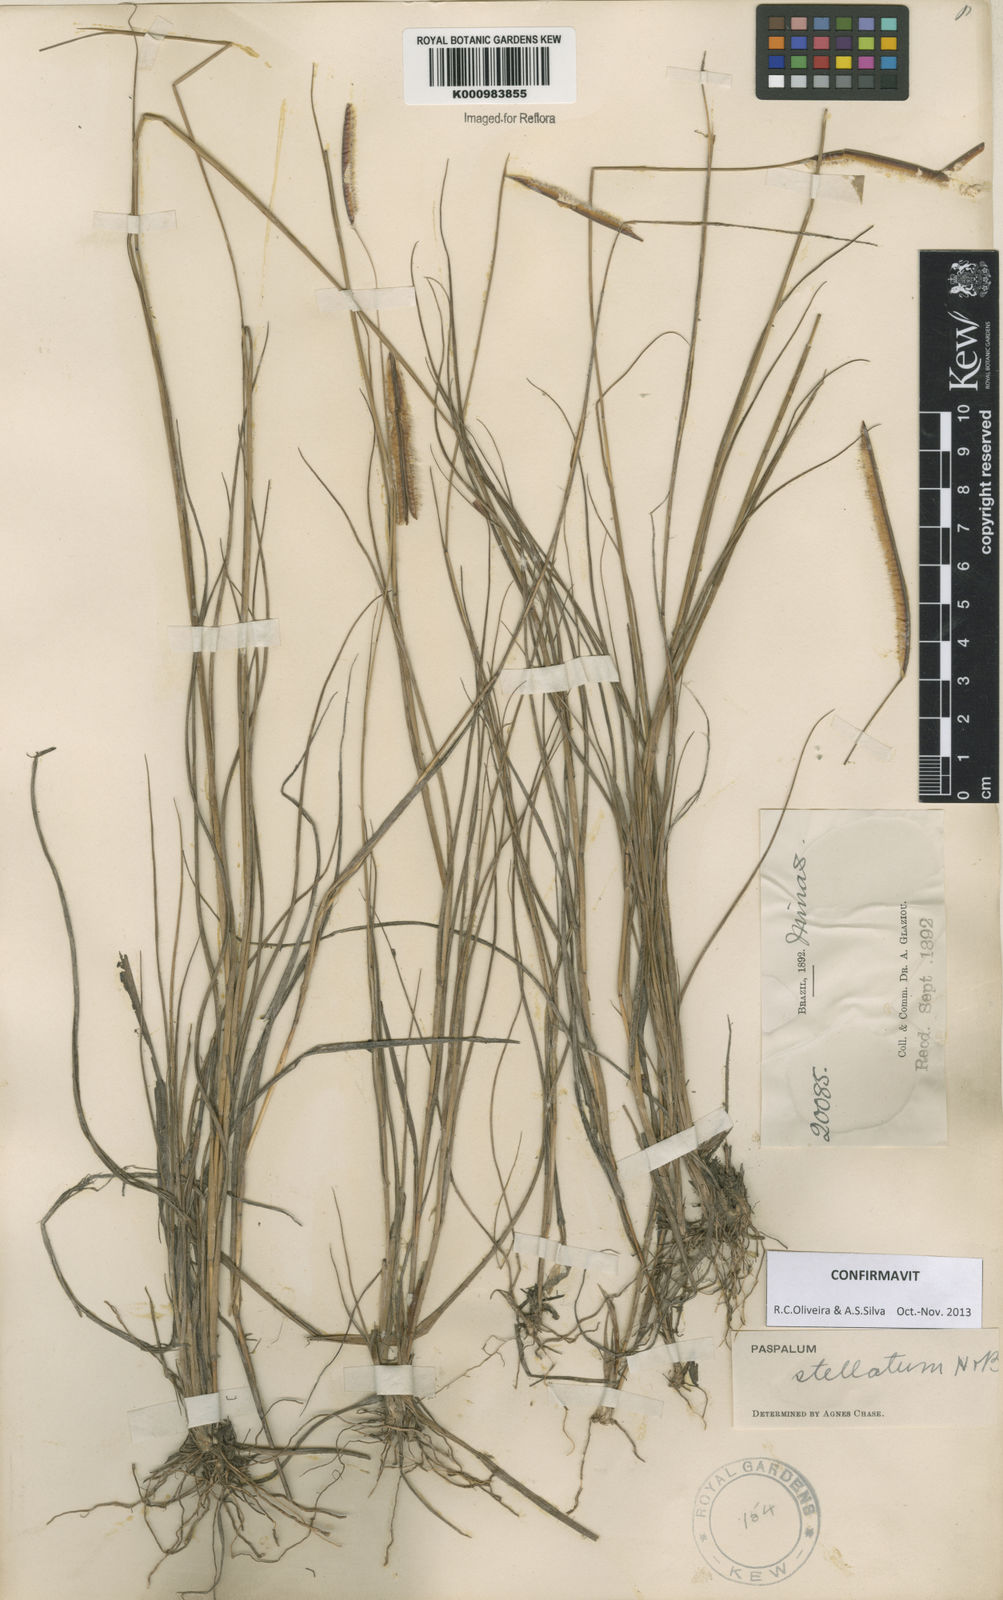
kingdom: Plantae
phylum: Tracheophyta
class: Liliopsida
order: Poales
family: Poaceae
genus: Paspalum
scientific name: Paspalum
